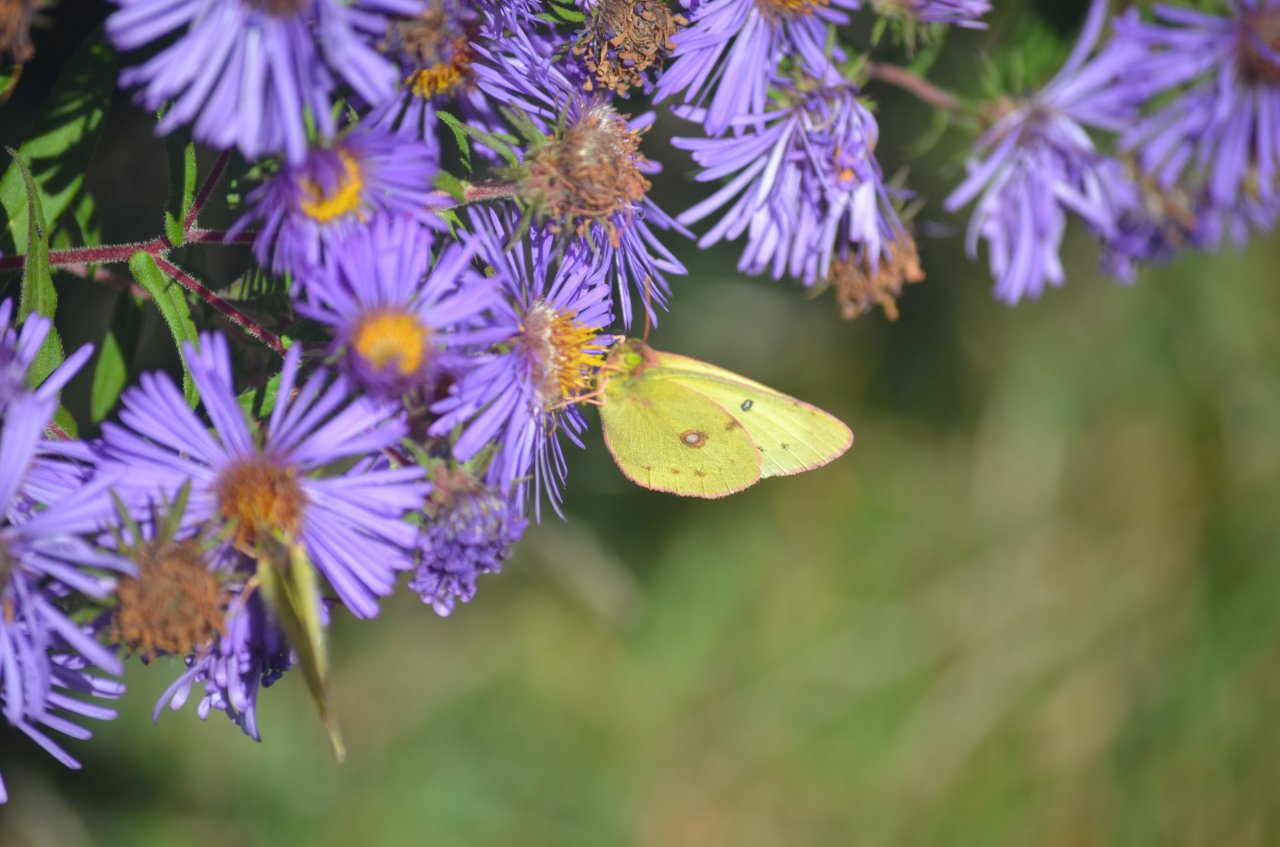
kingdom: Animalia
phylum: Arthropoda
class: Insecta
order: Lepidoptera
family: Pieridae
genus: Colias
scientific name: Colias philodice
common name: Clouded Sulphur
